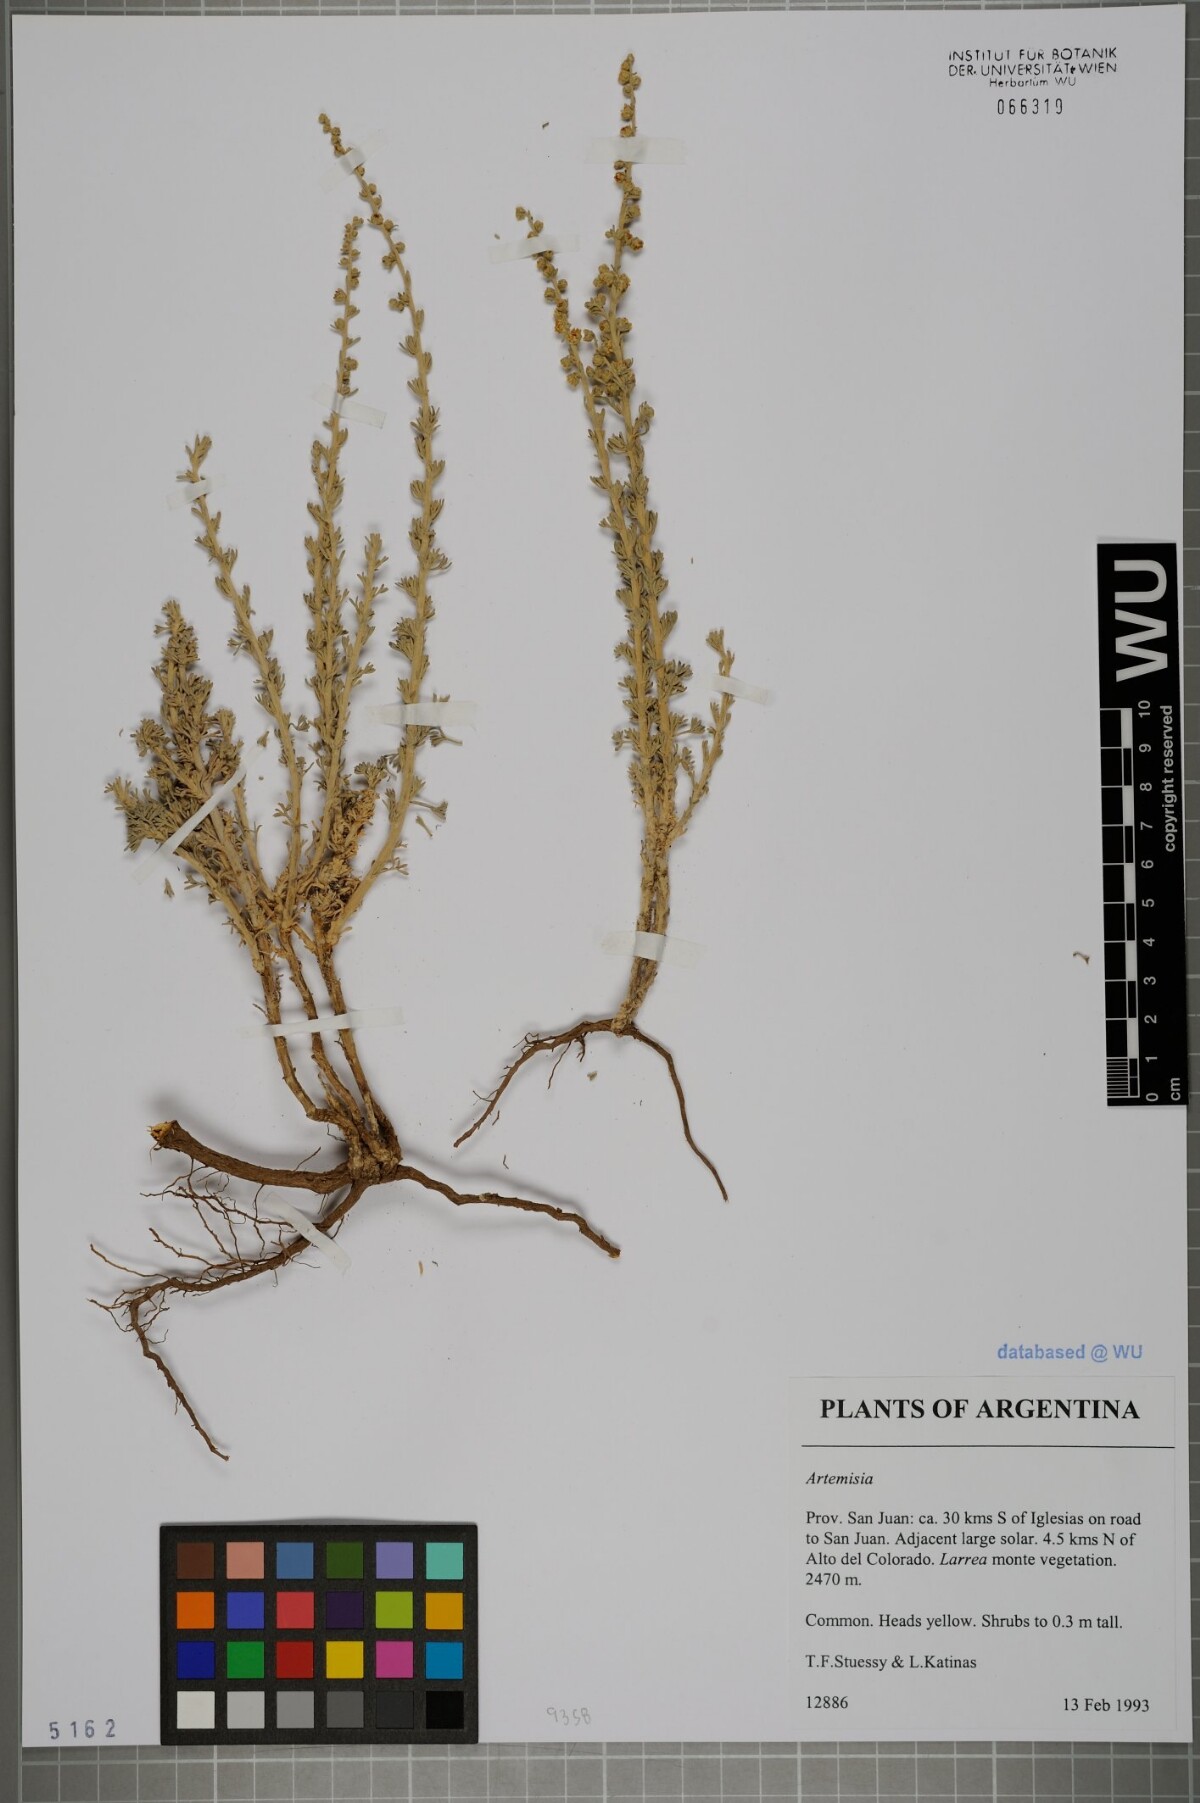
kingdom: Plantae
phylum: Tracheophyta
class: Magnoliopsida
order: Asterales
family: Asteraceae
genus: Artemisia
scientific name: Artemisia
